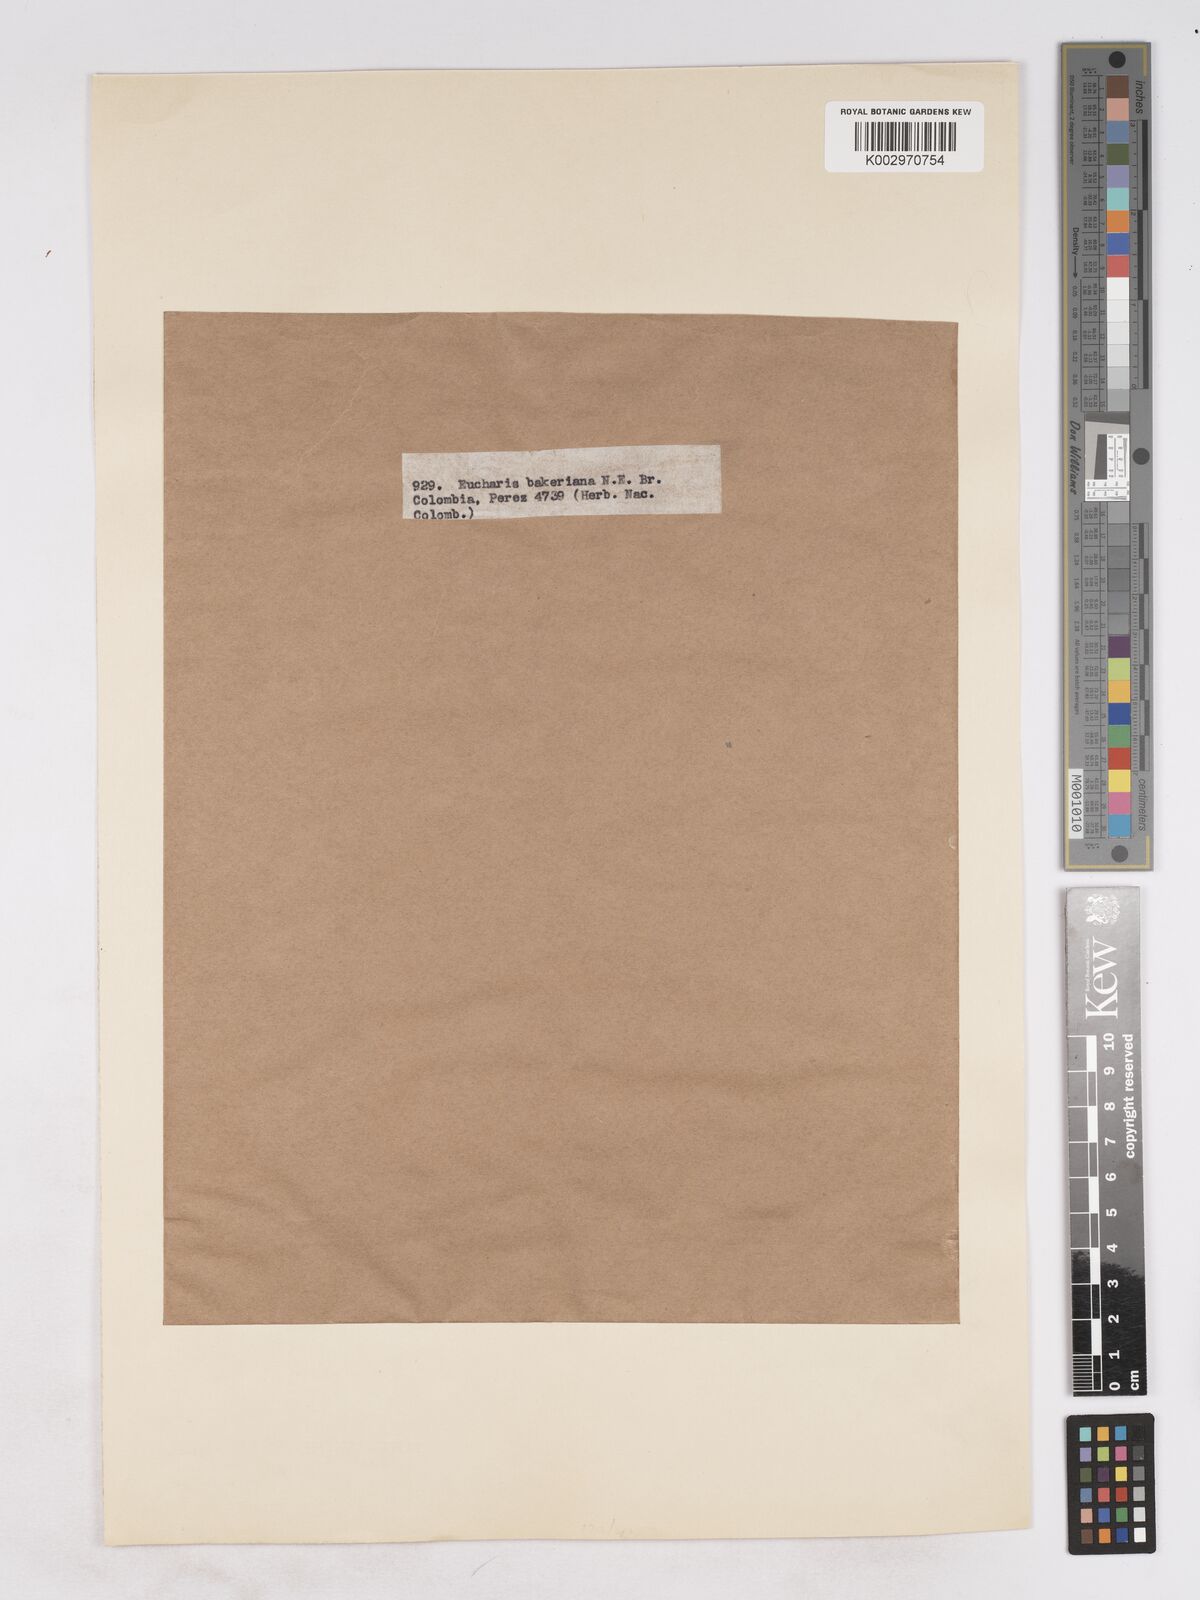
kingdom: Plantae
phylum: Tracheophyta
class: Liliopsida
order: Asparagales
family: Amaryllidaceae
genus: Urceolina
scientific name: Urceolina bakeriana
